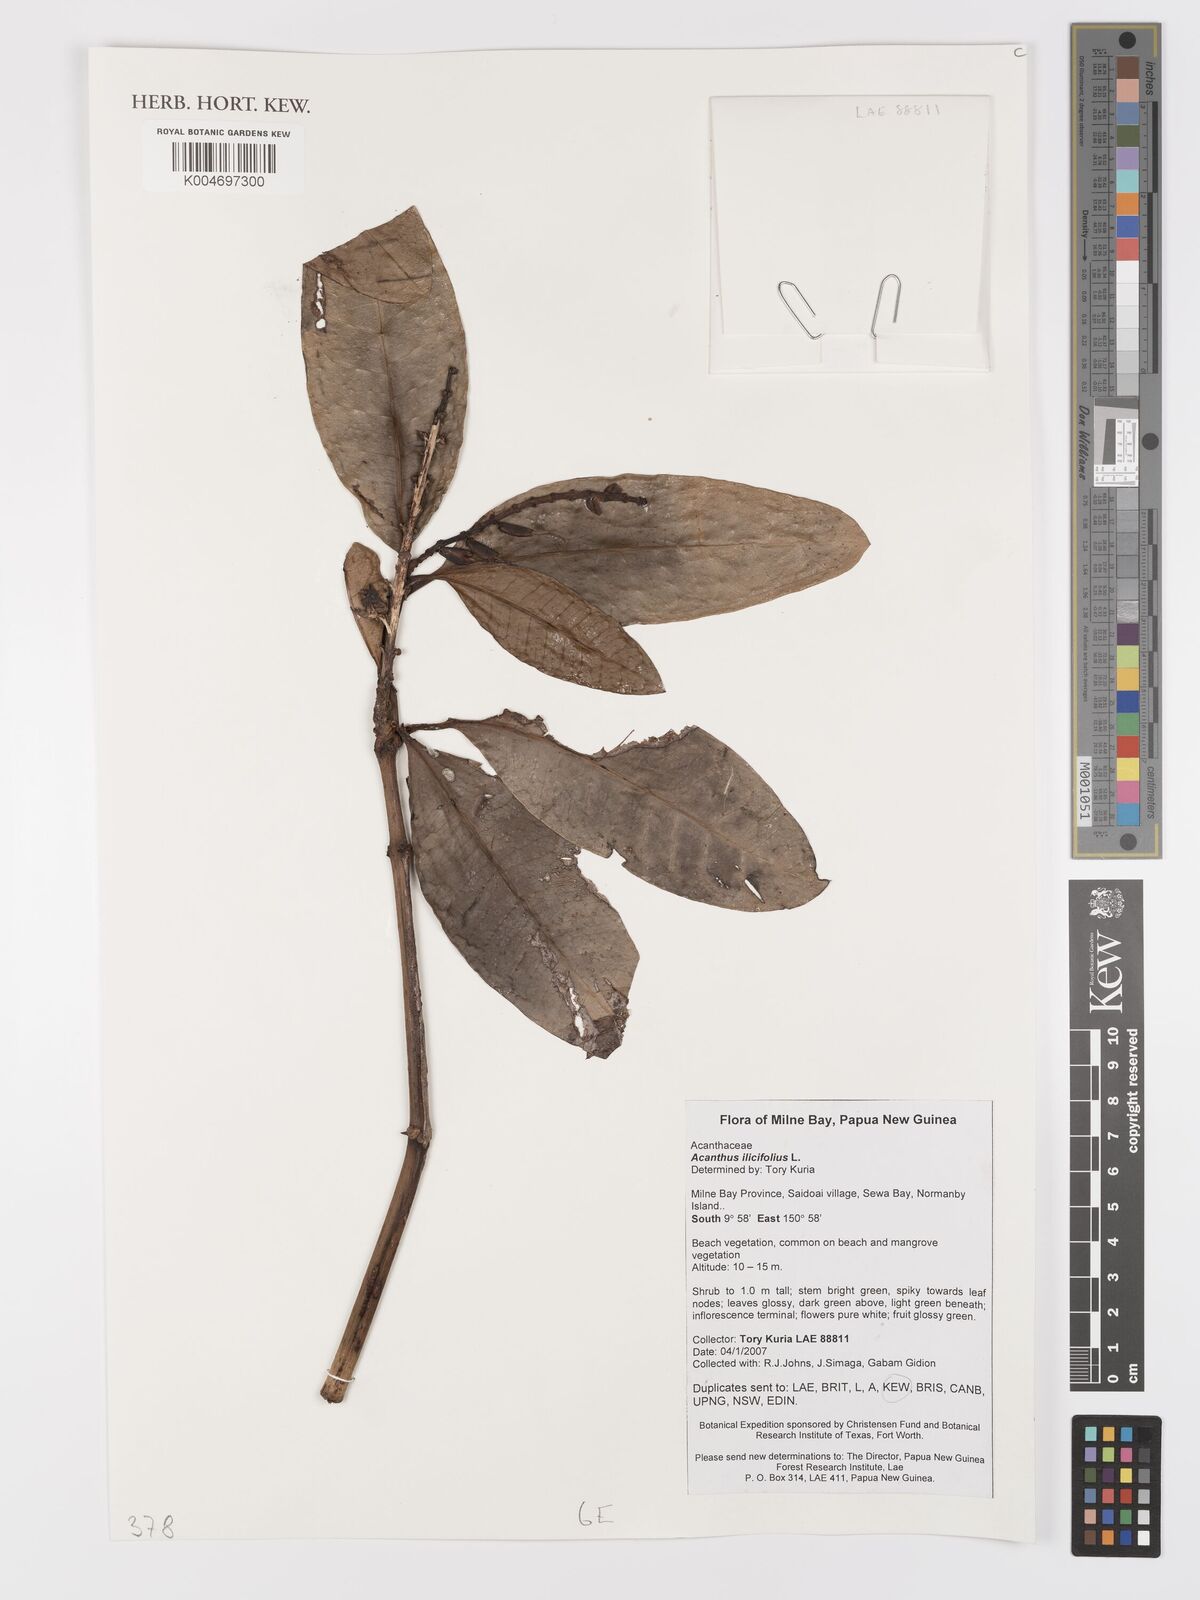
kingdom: Plantae
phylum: Tracheophyta
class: Magnoliopsida
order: Lamiales
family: Acanthaceae
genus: Acanthus
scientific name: Acanthus ilicifolius
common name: Holy mangrove
